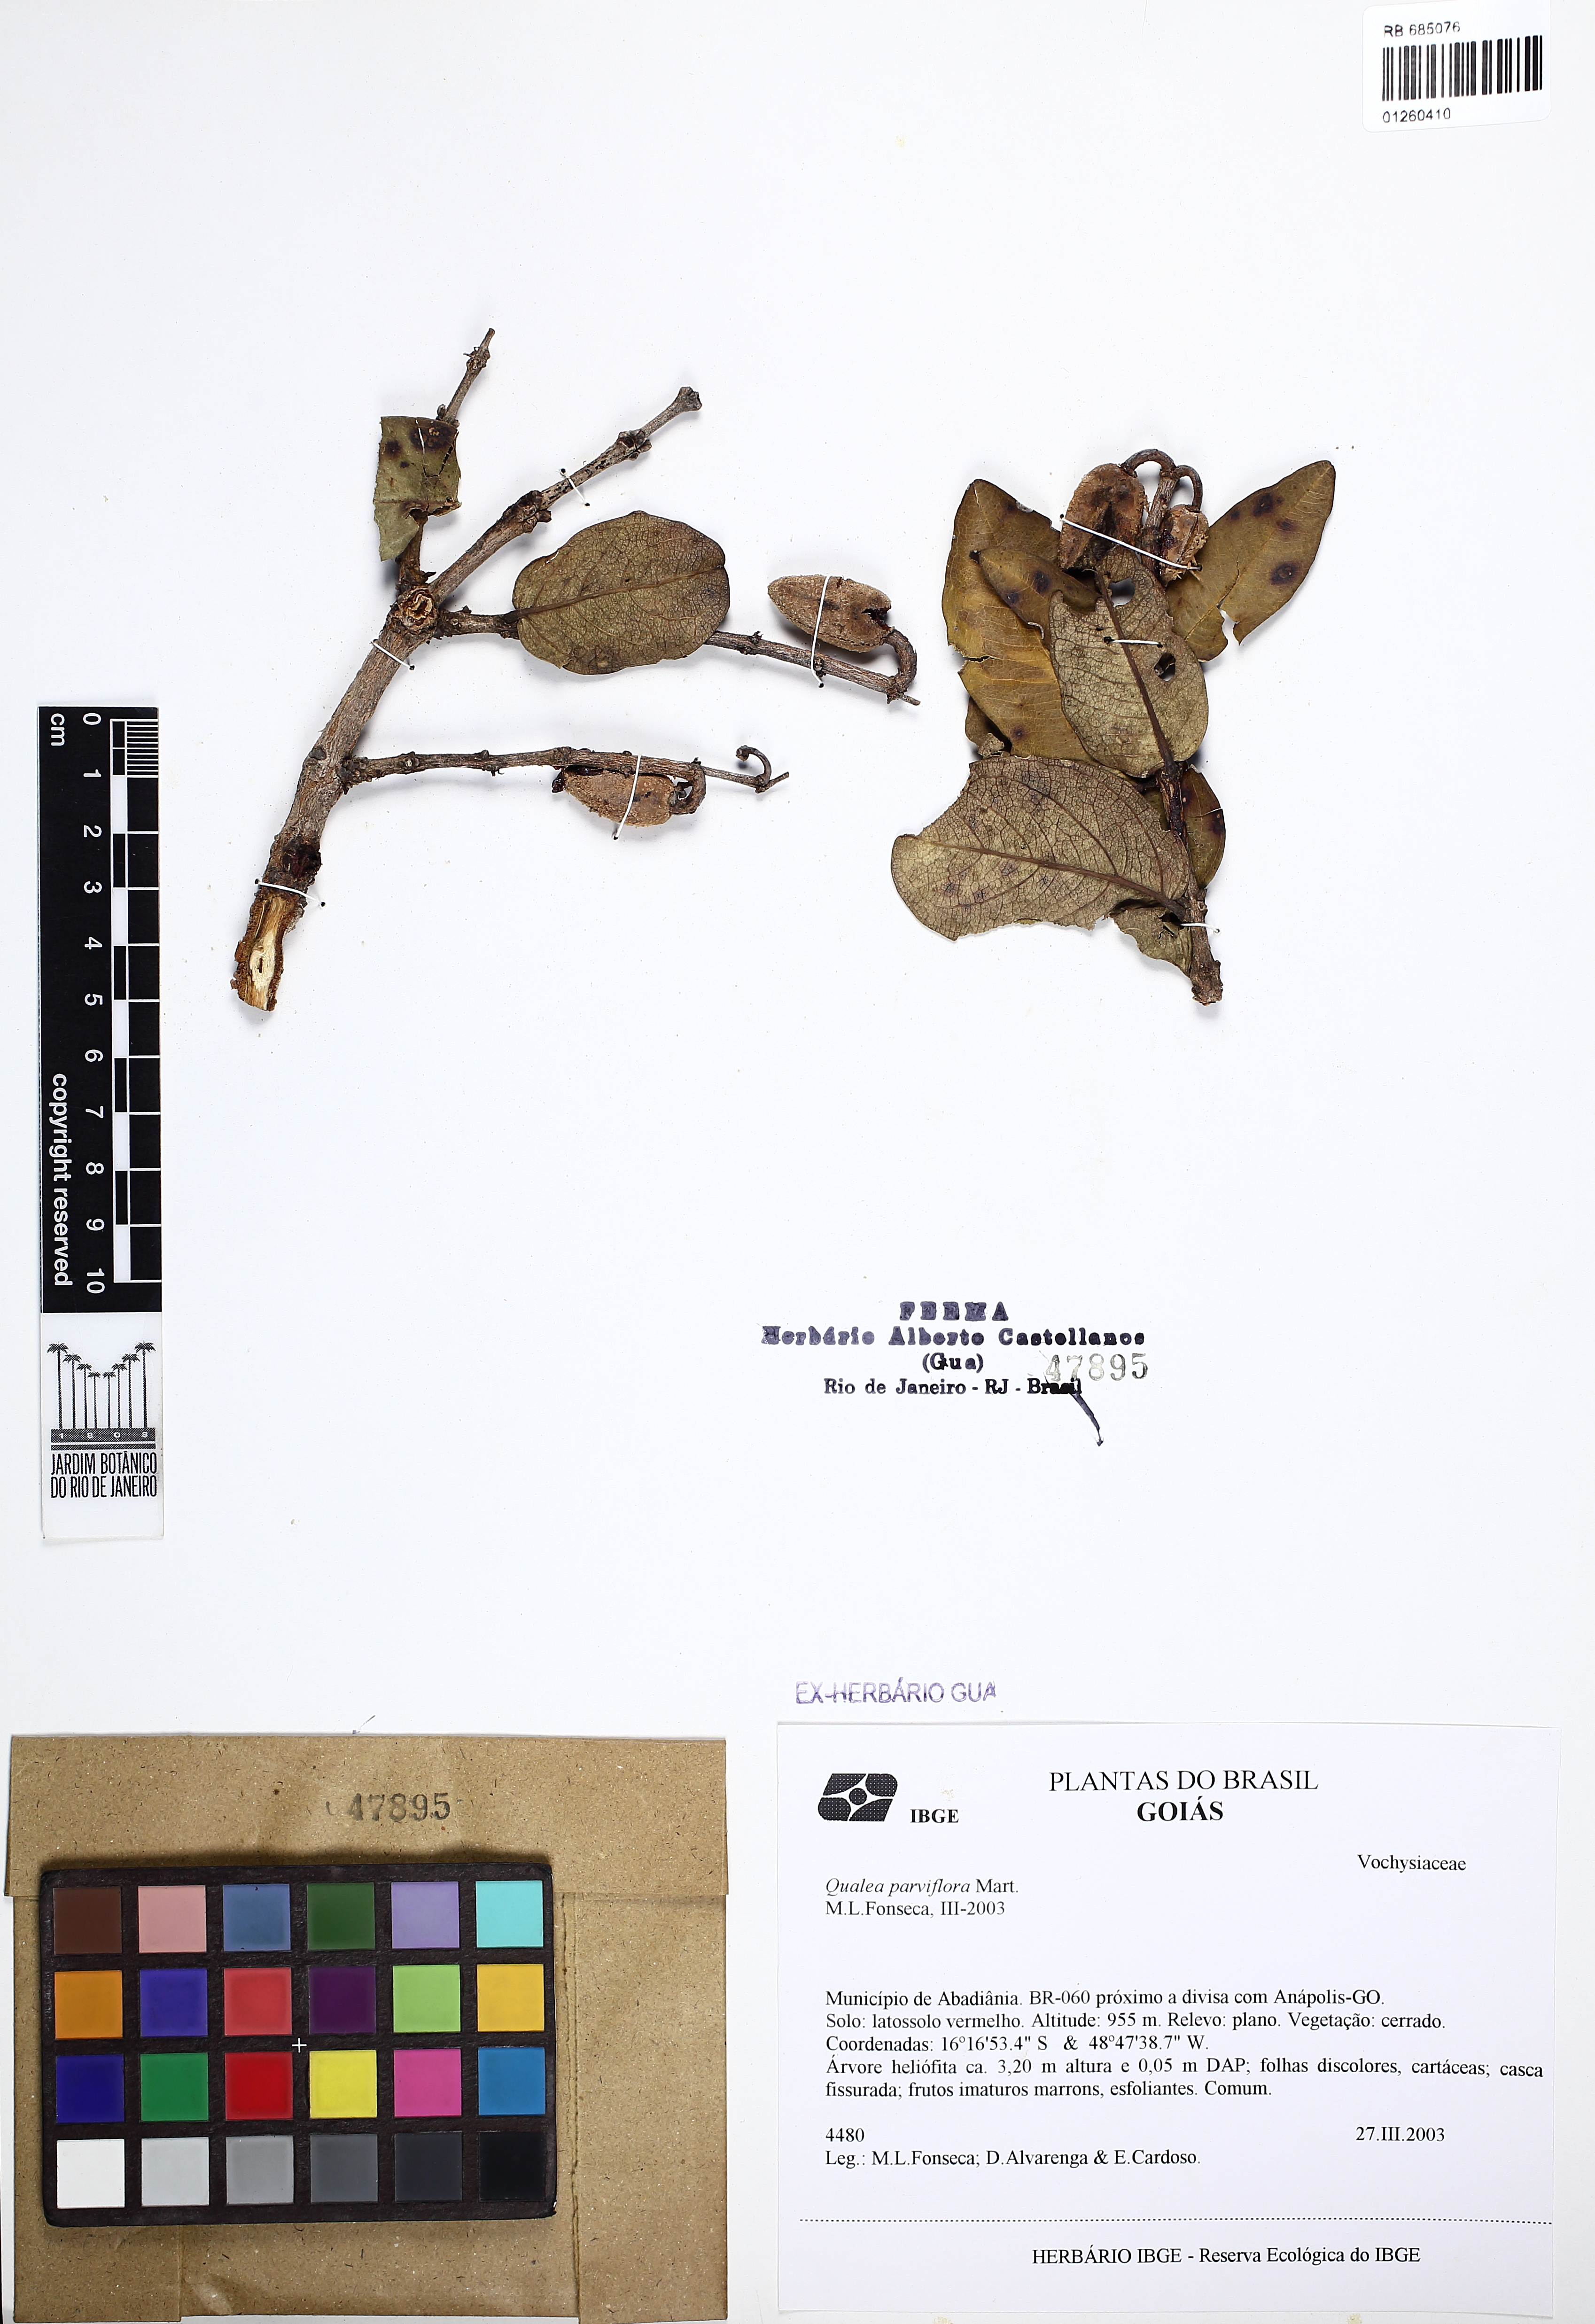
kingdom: Plantae
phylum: Tracheophyta
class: Magnoliopsida
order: Myrtales
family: Vochysiaceae
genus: Qualea
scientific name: Qualea parviflora
